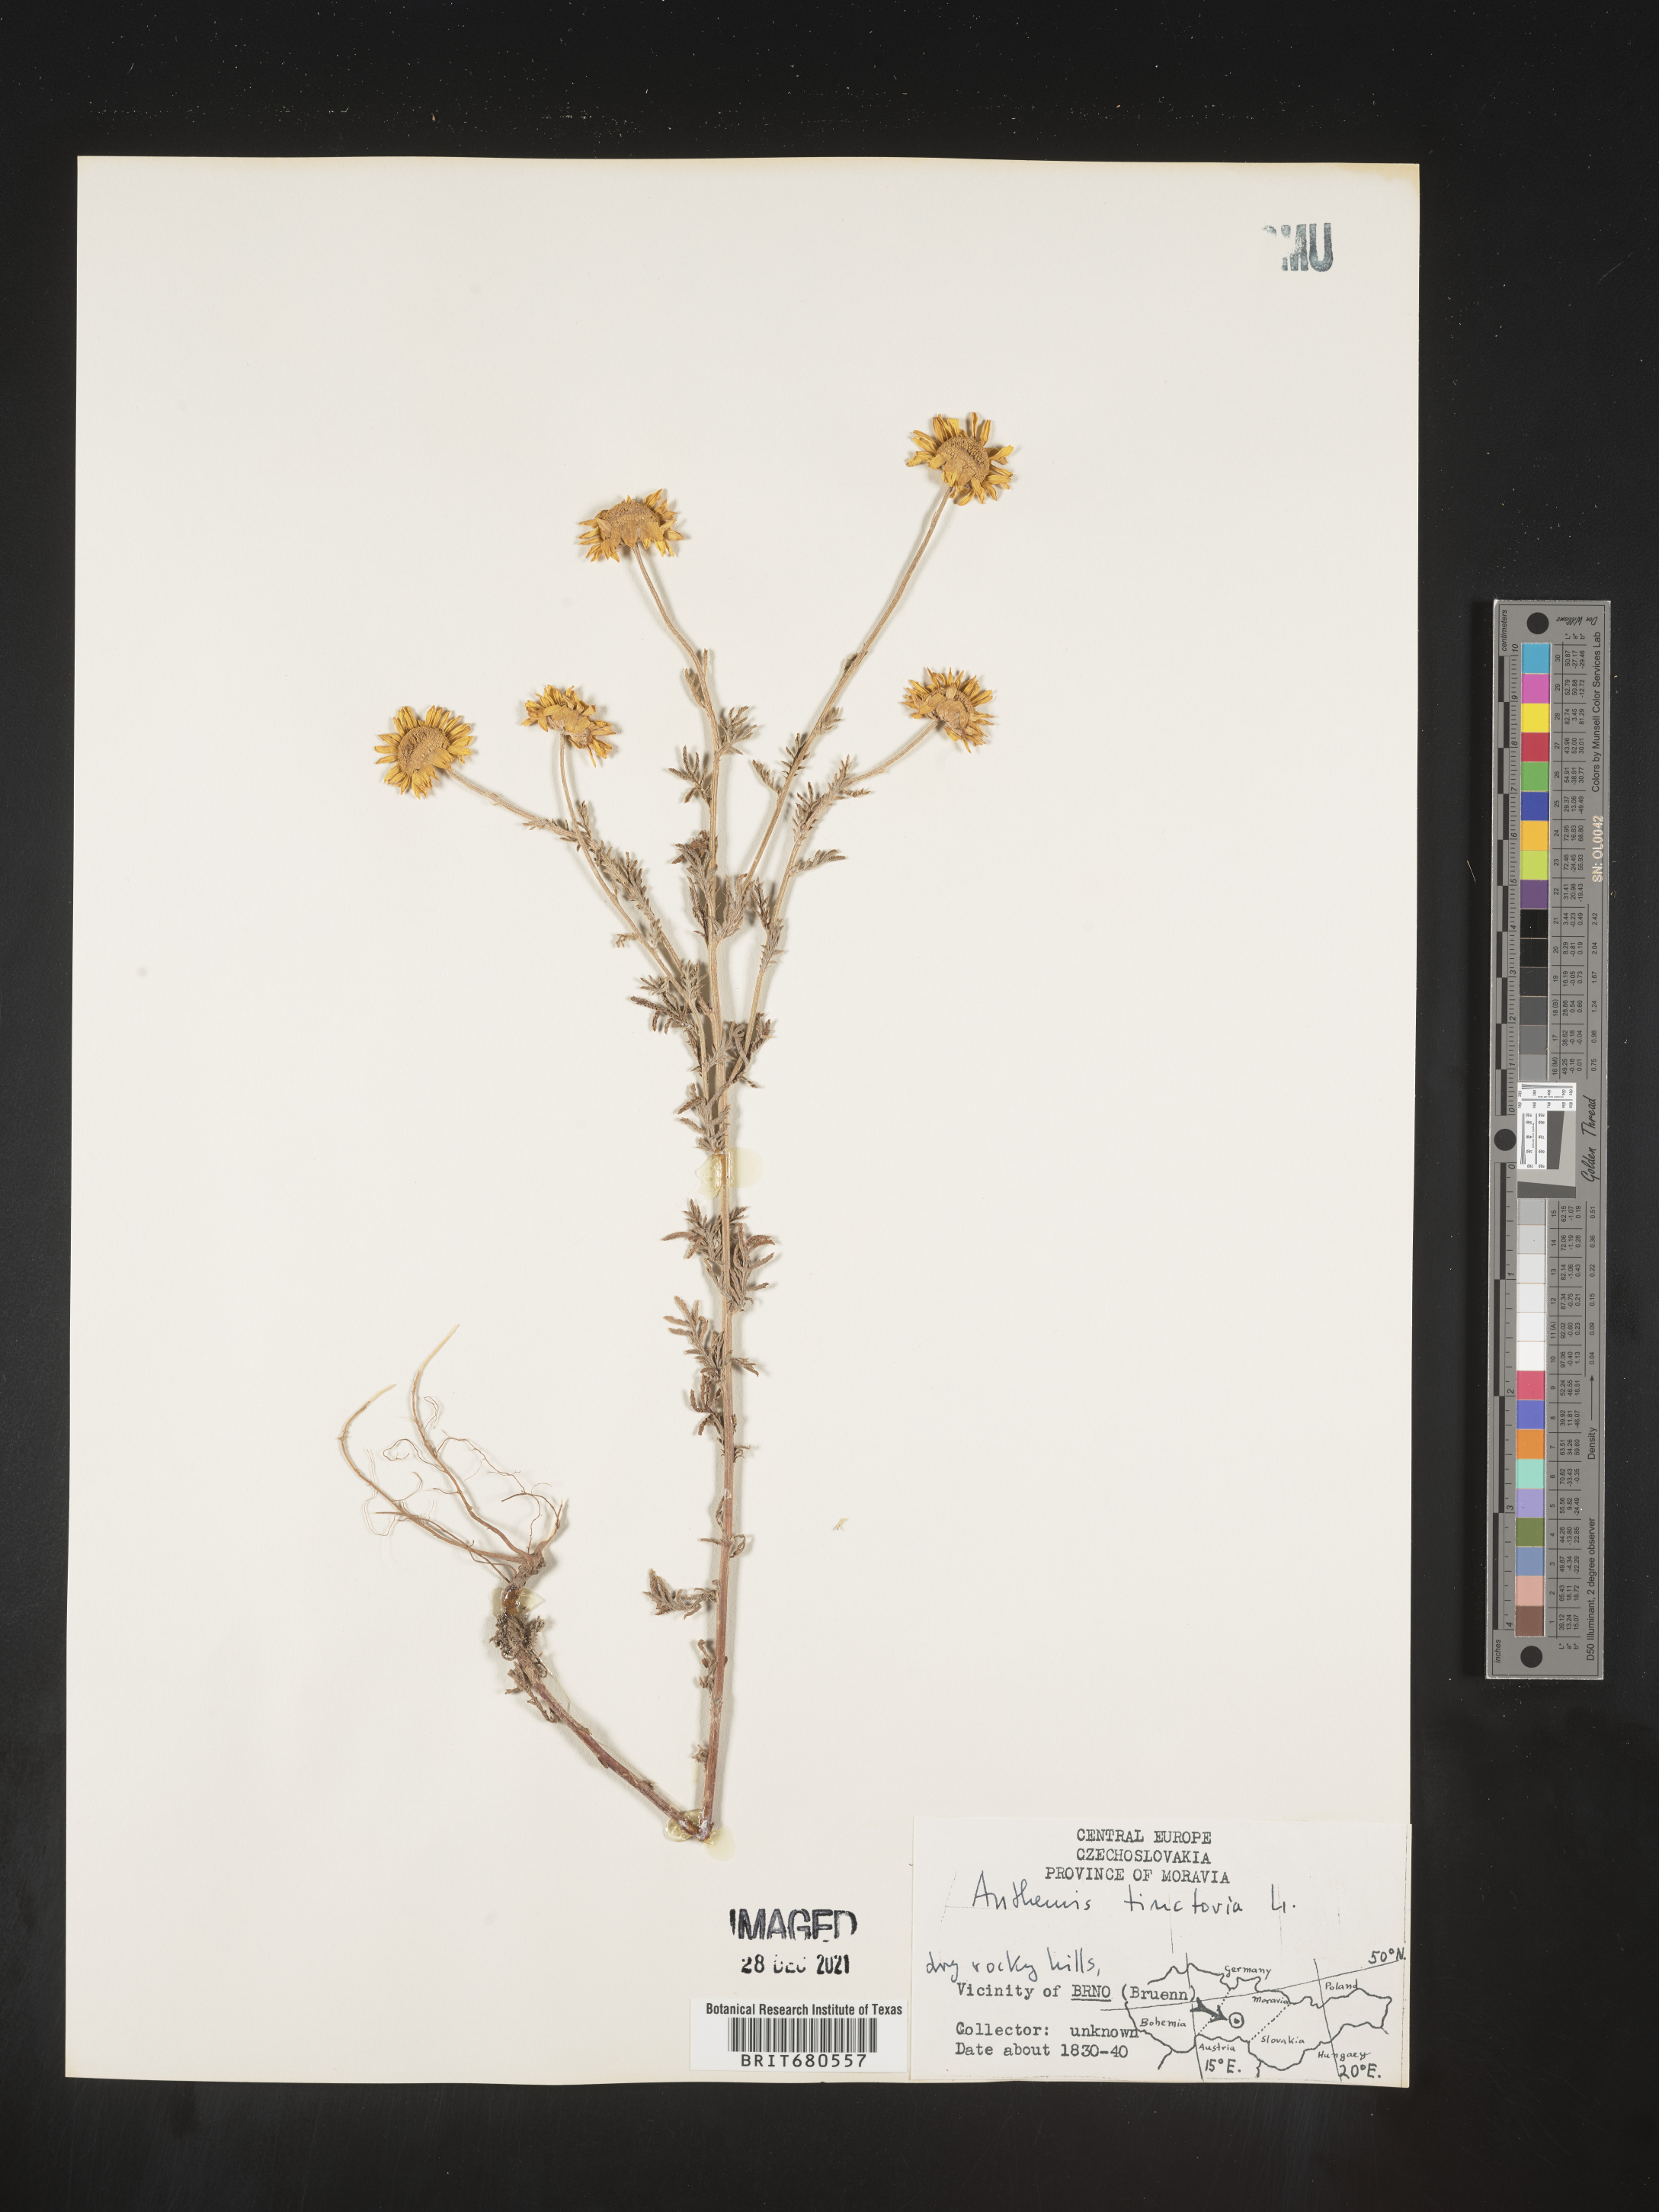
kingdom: Plantae
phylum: Tracheophyta
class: Magnoliopsida
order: Asterales
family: Asteraceae
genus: Anthemis
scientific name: Anthemis
